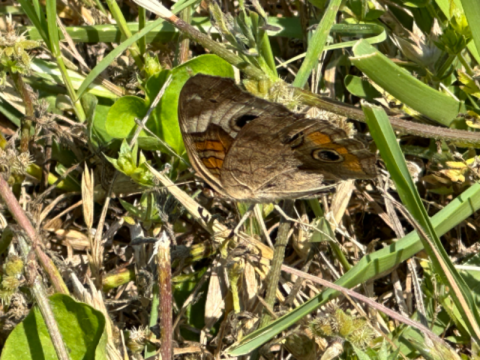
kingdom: Animalia
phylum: Arthropoda
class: Insecta
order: Lepidoptera
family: Nymphalidae
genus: Junonia
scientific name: Junonia coenia
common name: Common Buckeye
